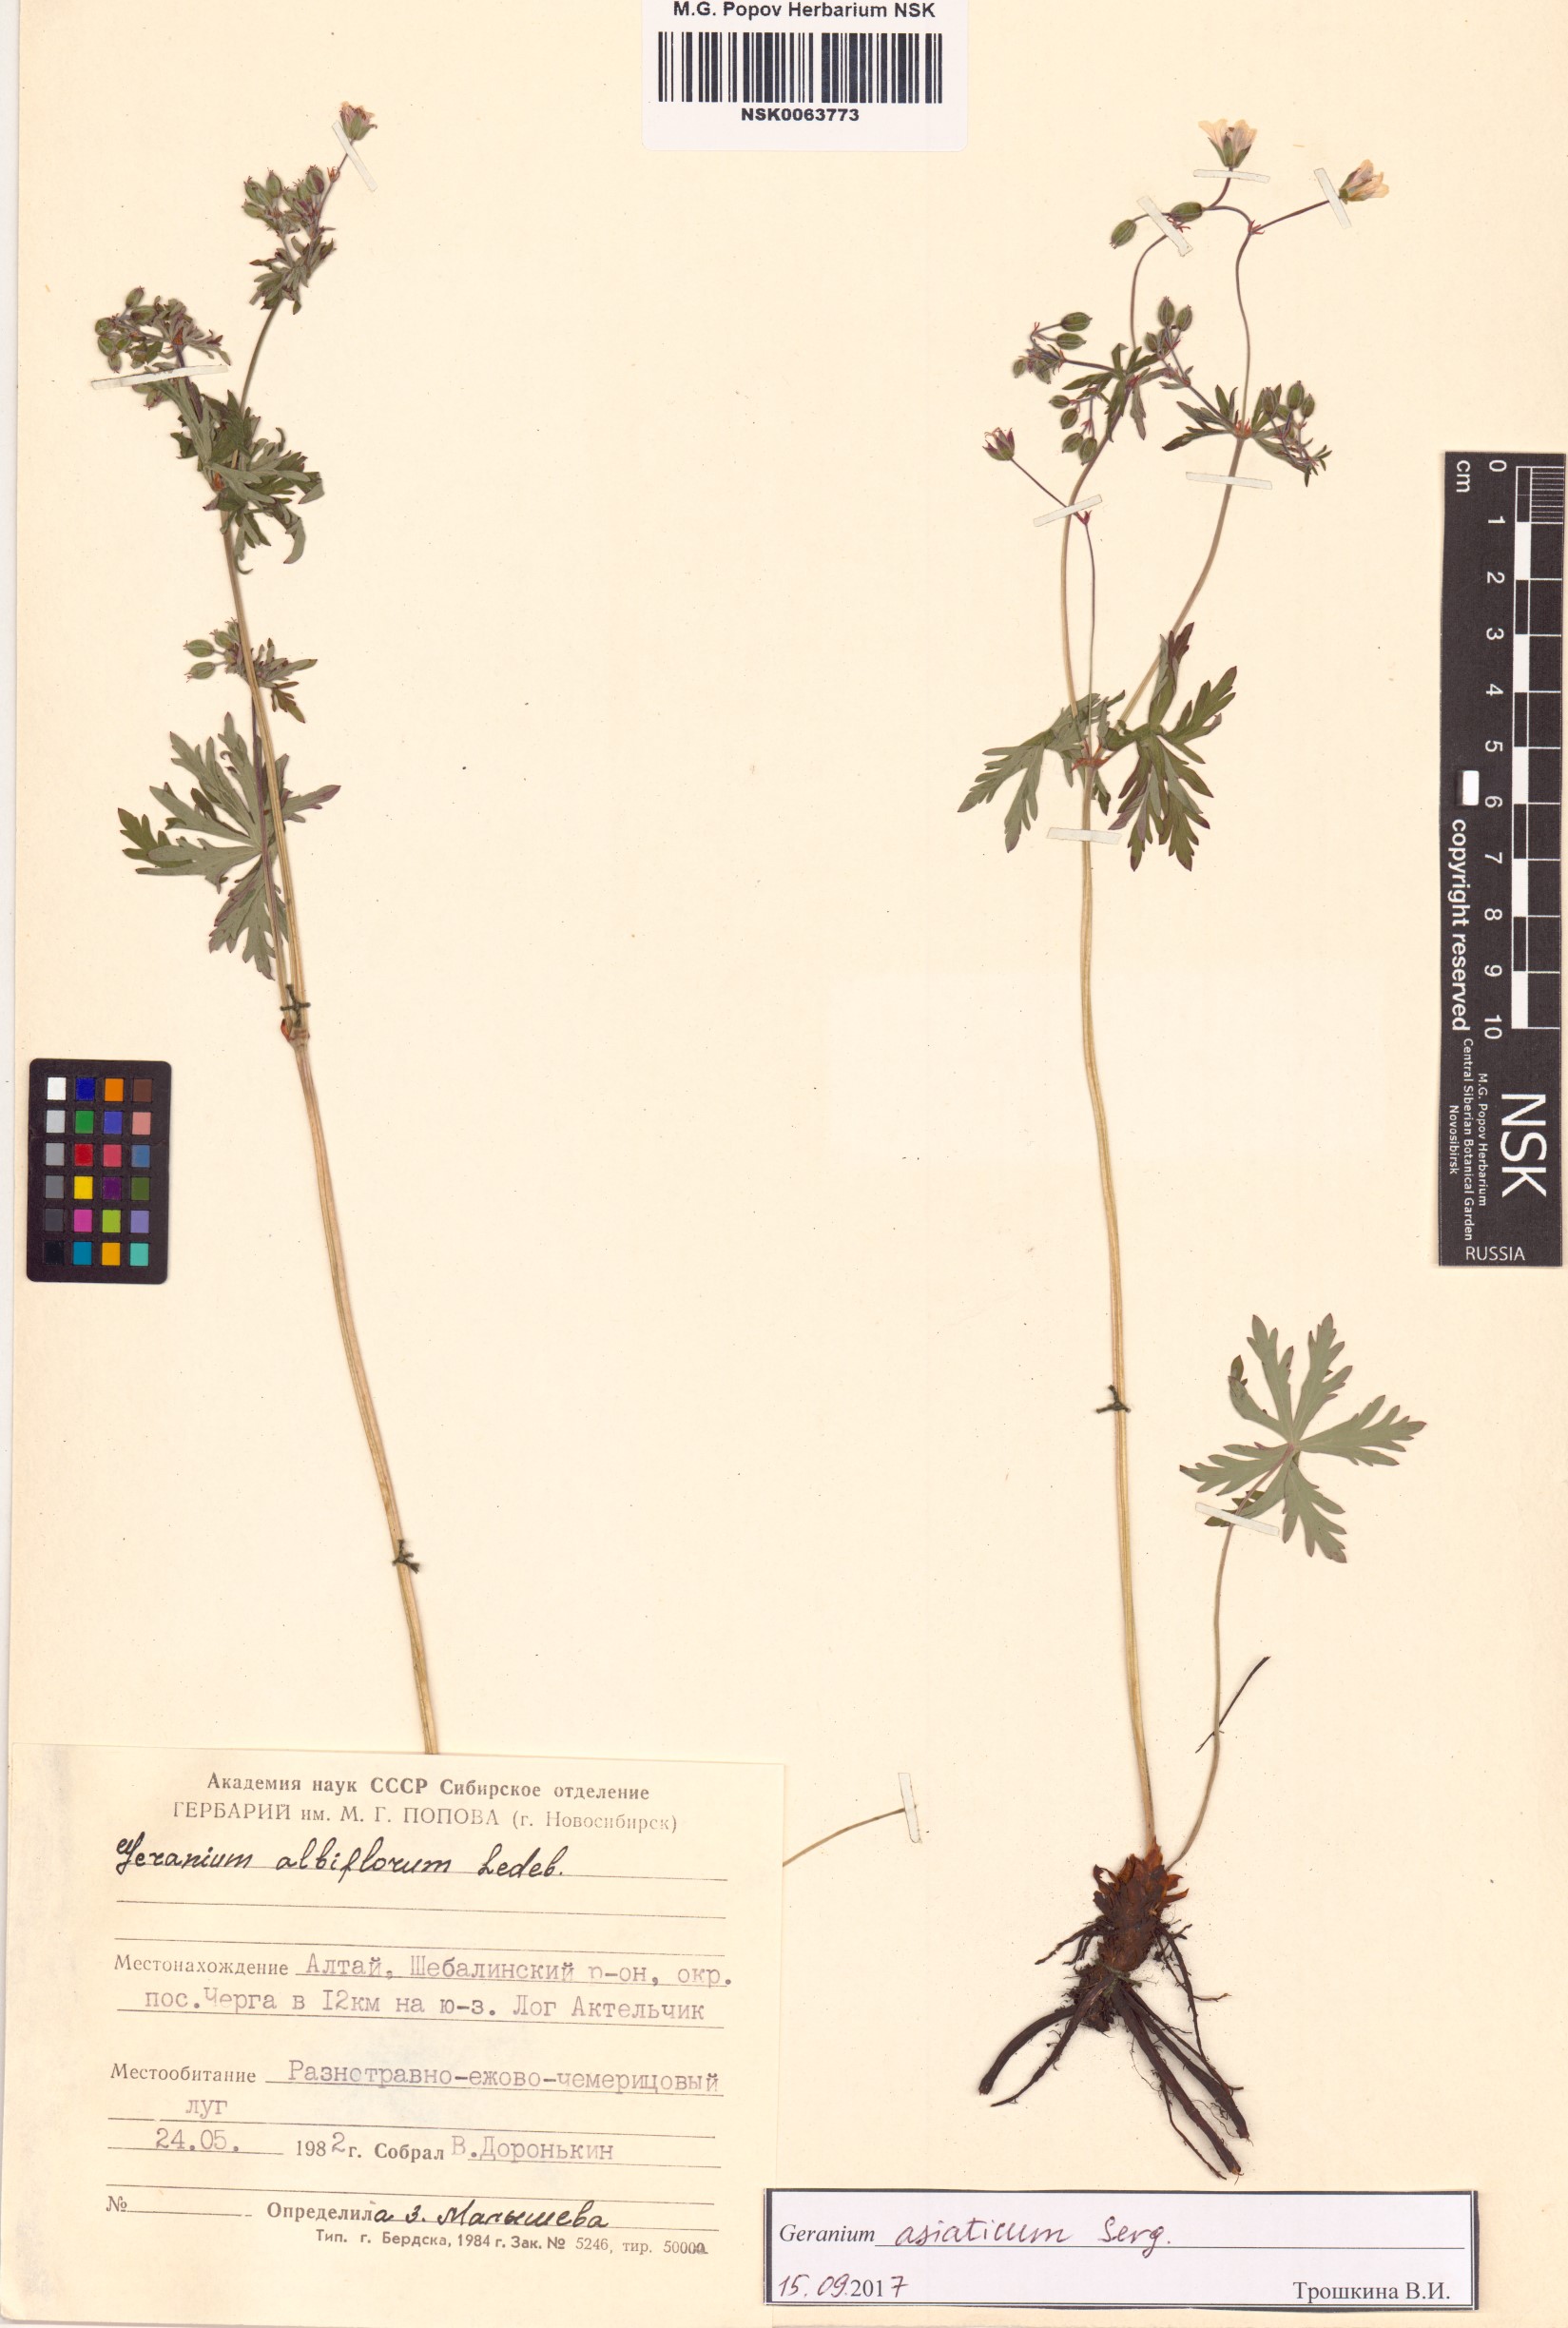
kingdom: Plantae
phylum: Tracheophyta
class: Magnoliopsida
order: Geraniales
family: Geraniaceae
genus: Geranium
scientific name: Geranium pseudosibiricum
